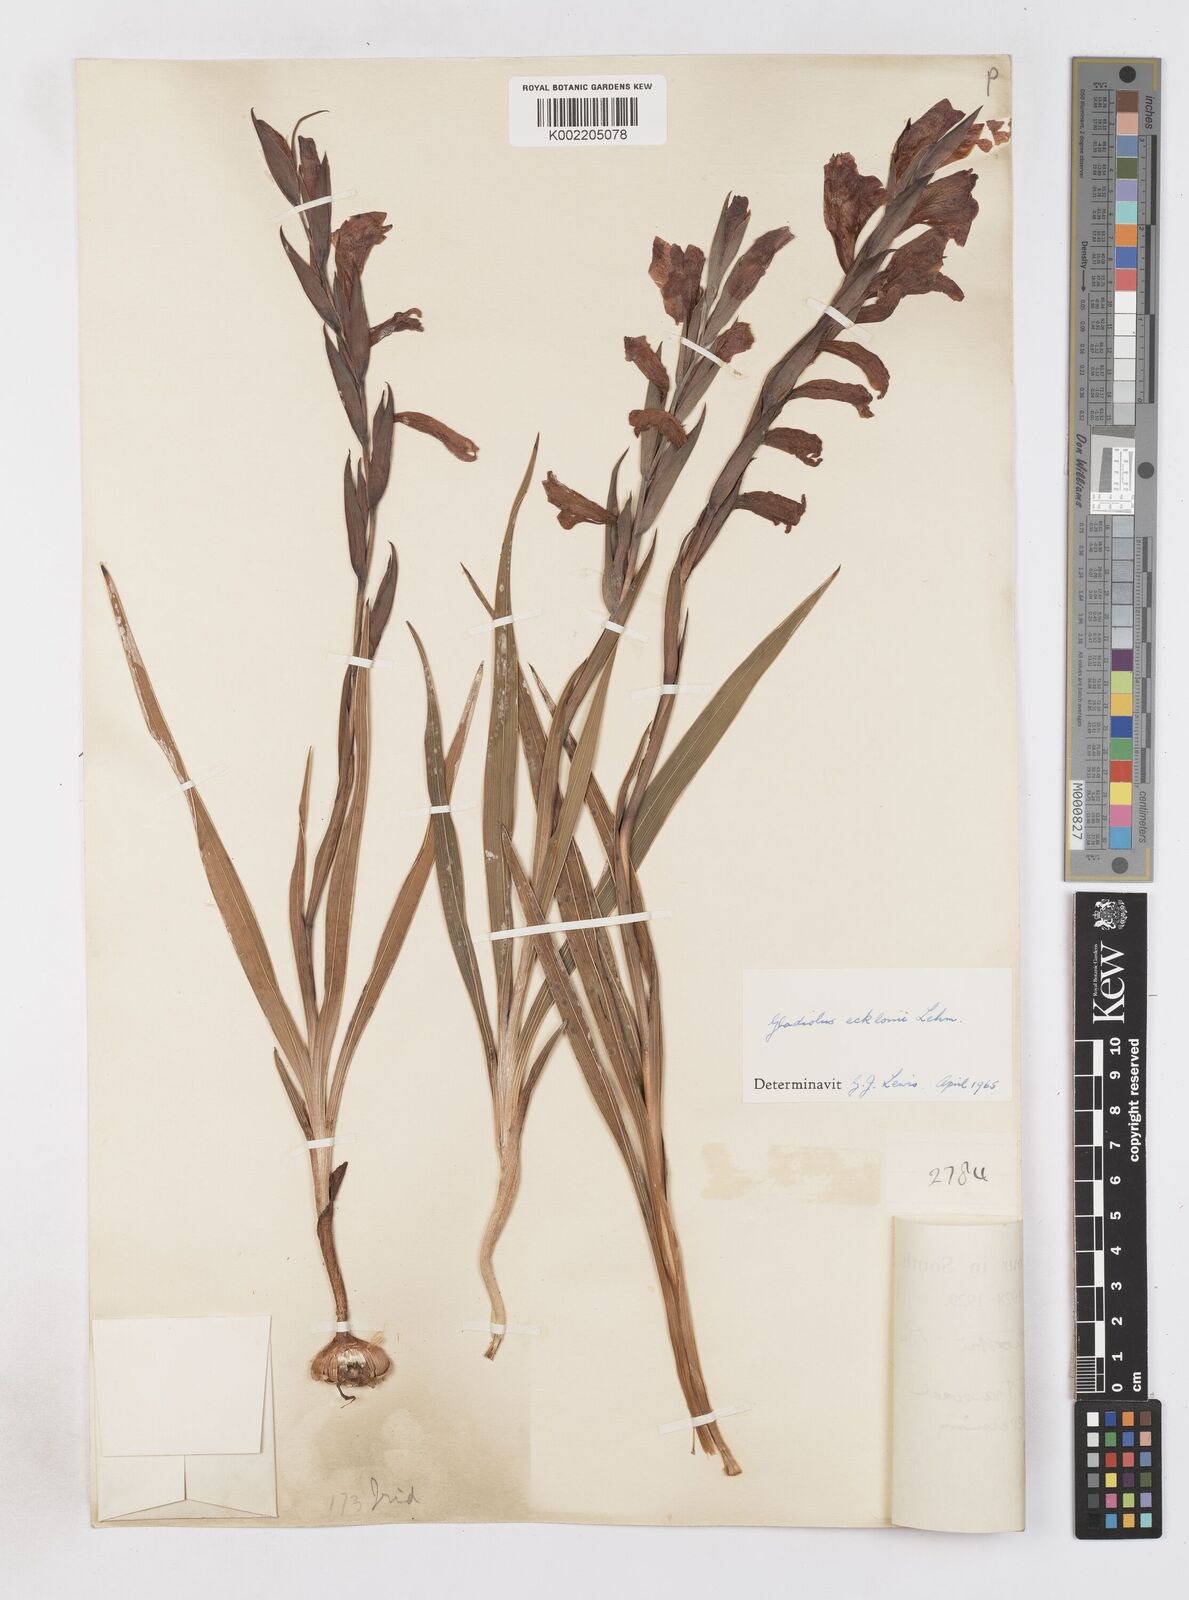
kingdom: Plantae
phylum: Tracheophyta
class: Liliopsida
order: Asparagales
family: Iridaceae
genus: Gladiolus
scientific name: Gladiolus ecklonii
